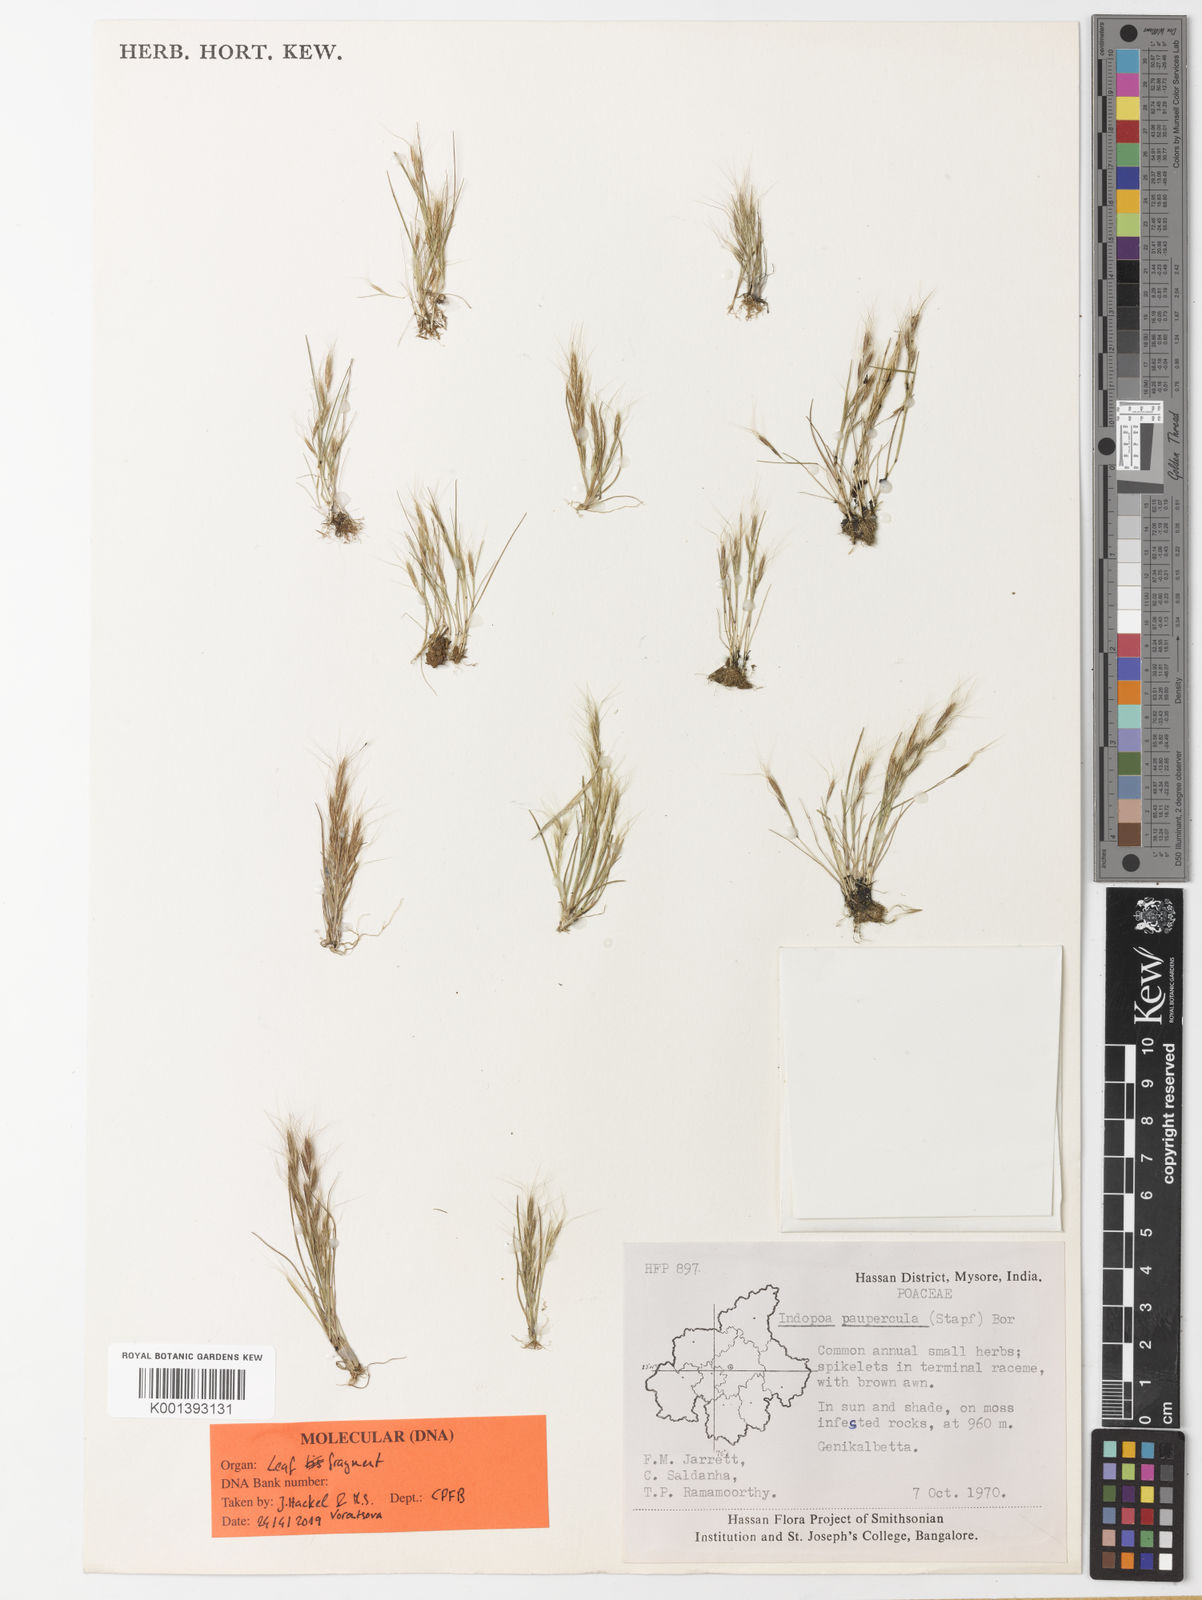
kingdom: Plantae
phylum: Tracheophyta
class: Liliopsida
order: Poales
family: Poaceae
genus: Indopoa
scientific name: Indopoa paupercula
